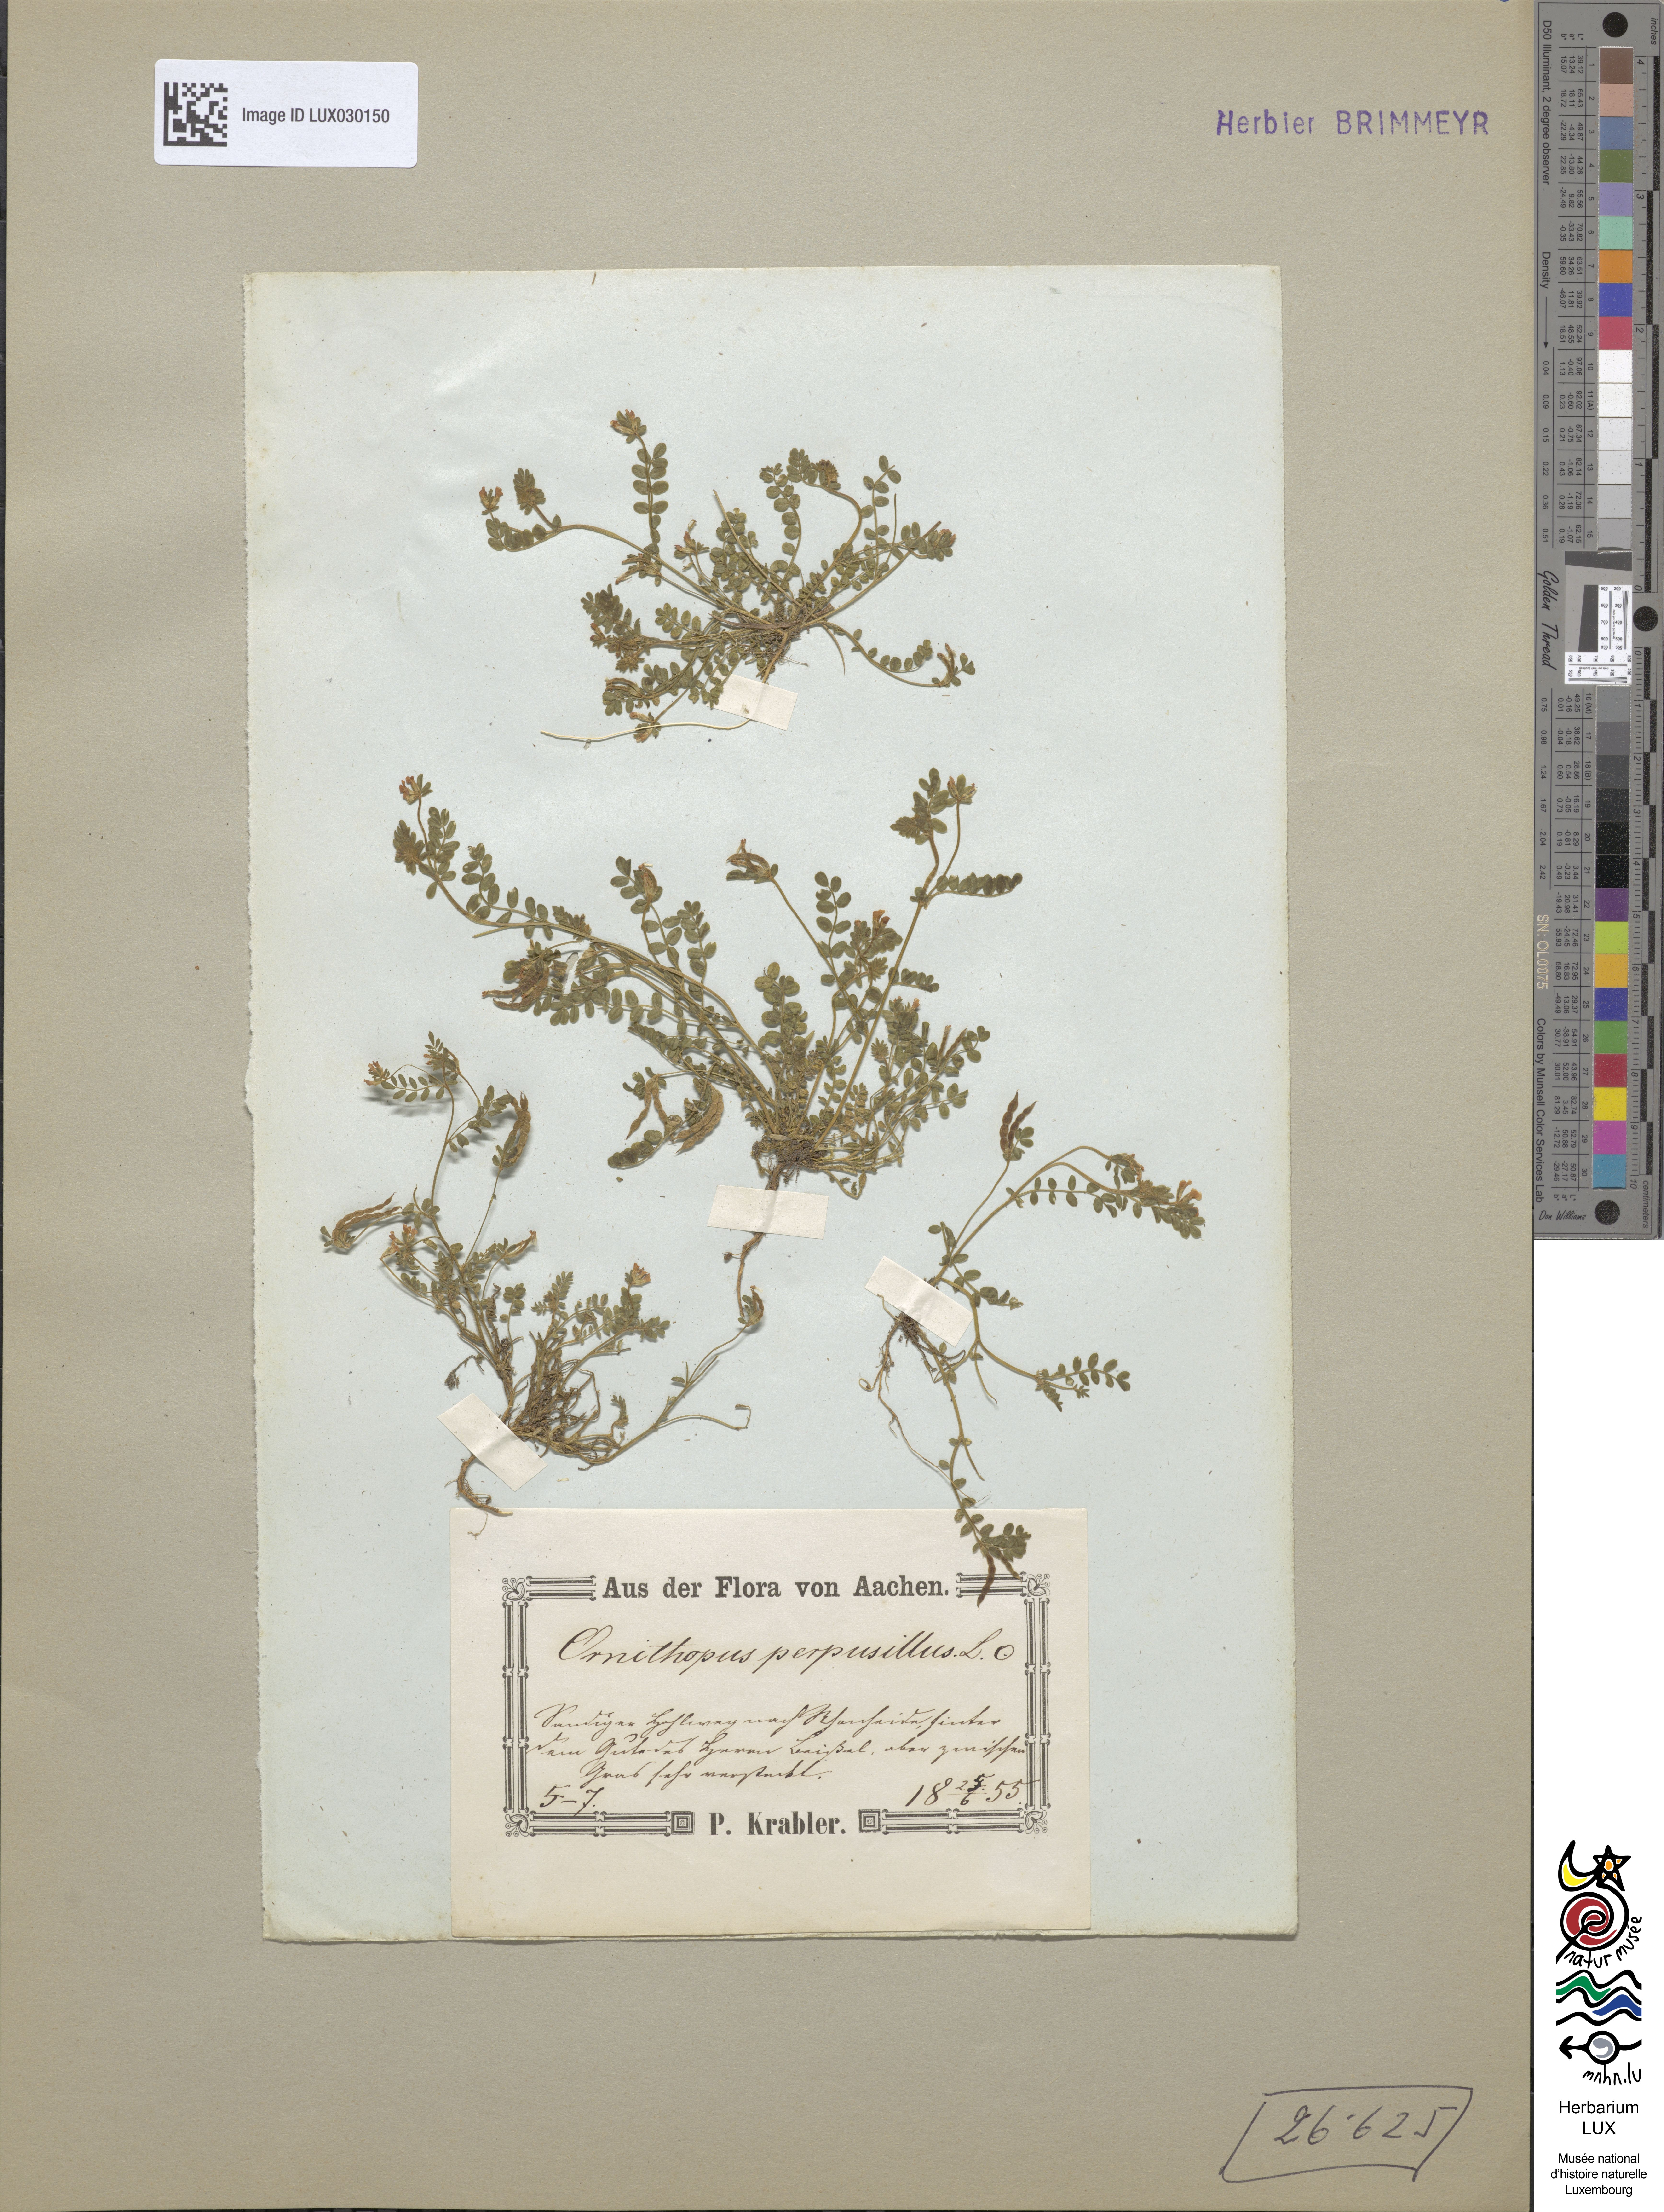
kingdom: Plantae
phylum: Tracheophyta
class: Magnoliopsida
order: Fabales
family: Fabaceae
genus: Ornithopus
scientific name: Ornithopus perpusillus
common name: Bird's-foot
